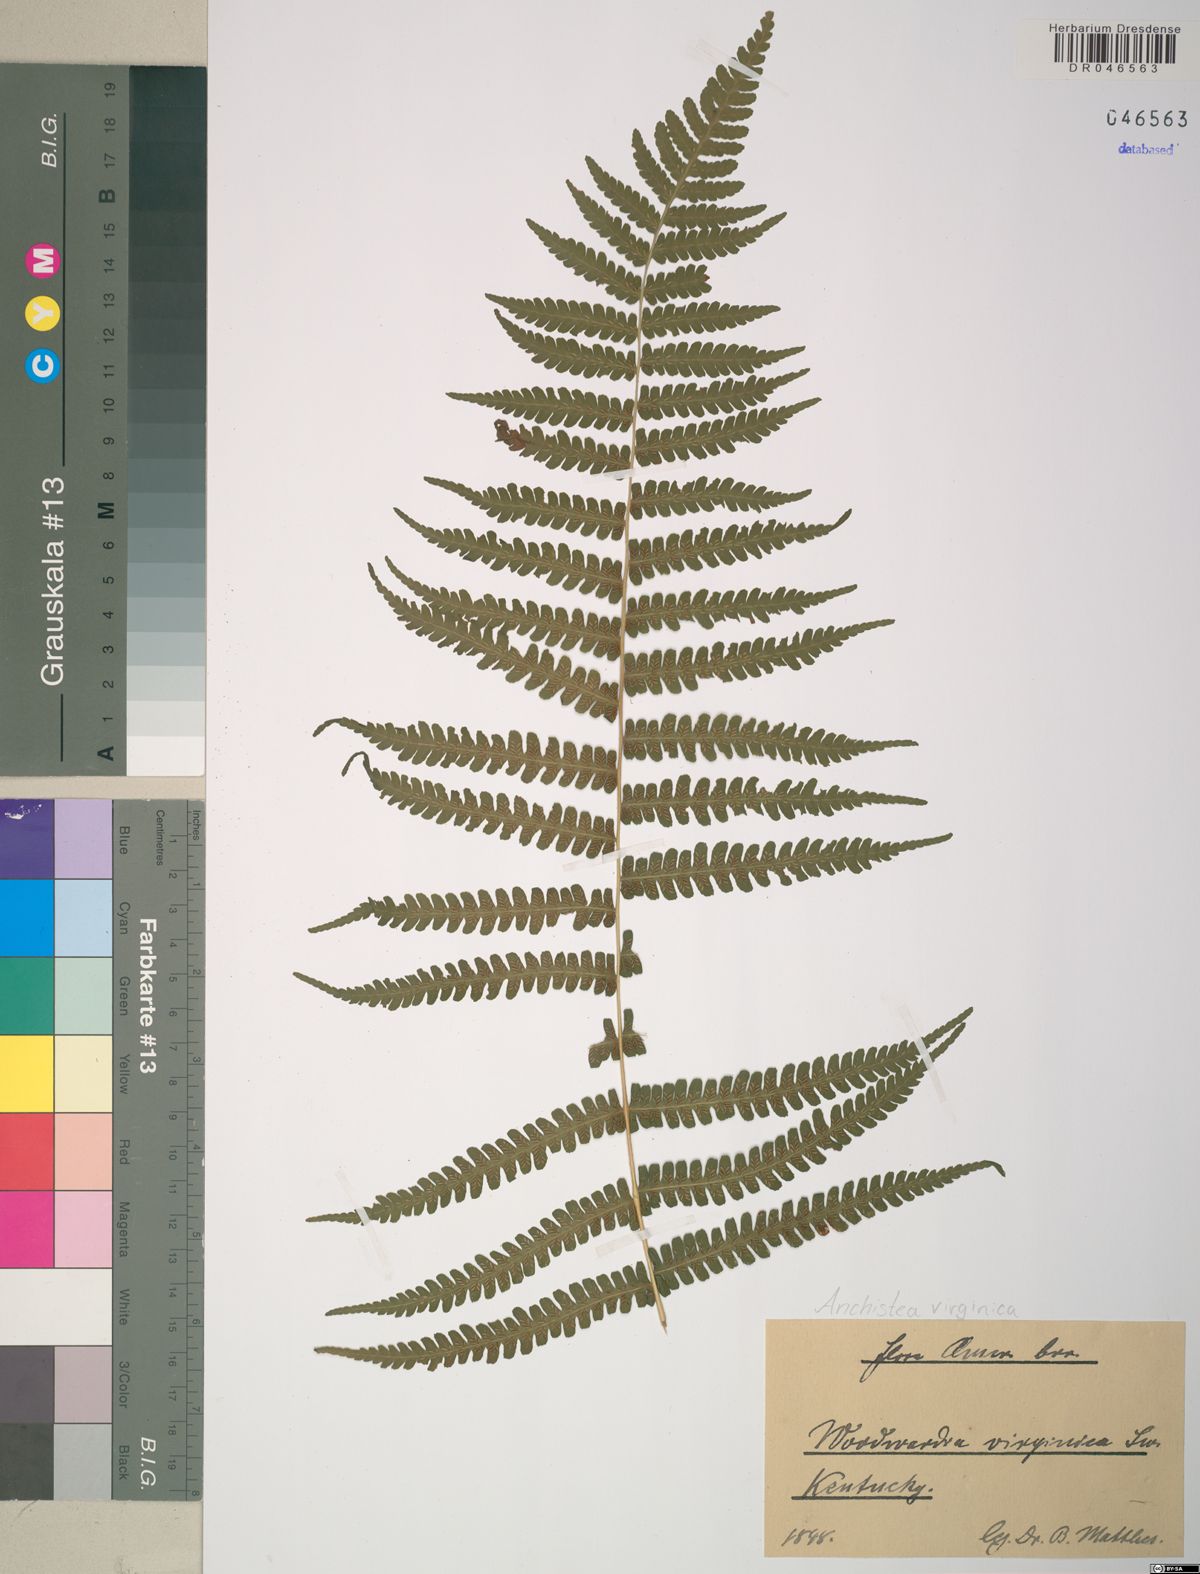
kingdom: Plantae
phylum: Tracheophyta
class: Polypodiopsida
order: Polypodiales
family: Blechnaceae
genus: Anchistea
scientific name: Anchistea virginica
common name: Virginia chain fern
